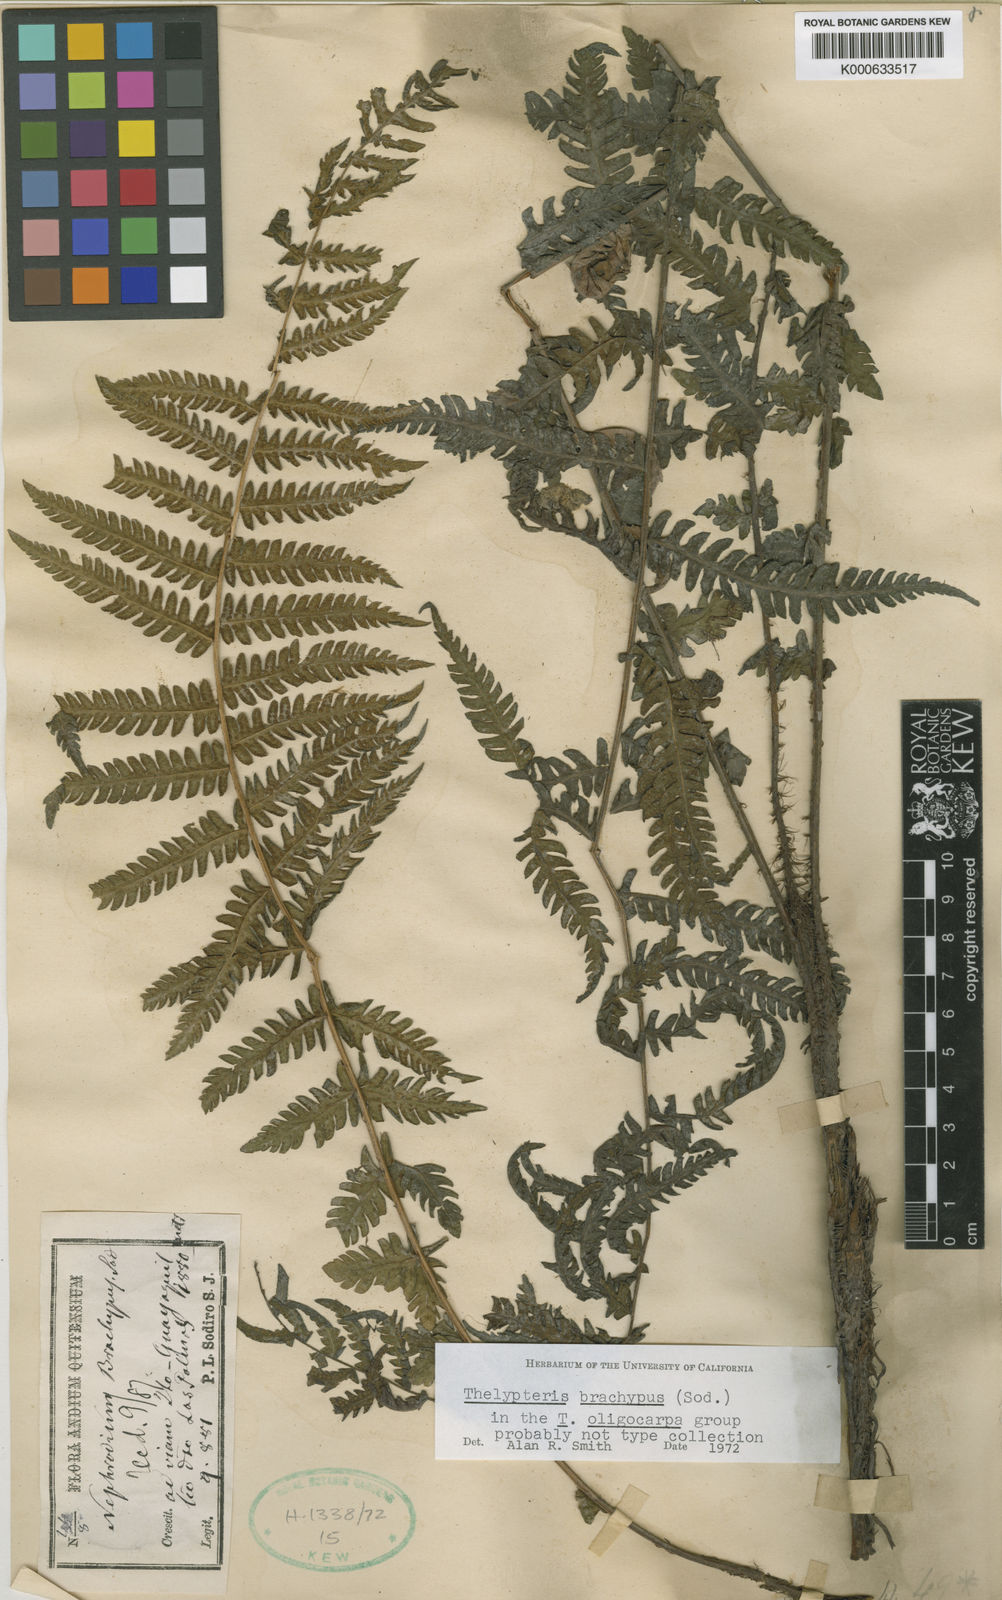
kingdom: Plantae
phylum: Tracheophyta
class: Polypodiopsida
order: Polypodiales
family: Thelypteridaceae
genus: Amauropelta
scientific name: Amauropelta brachypus
